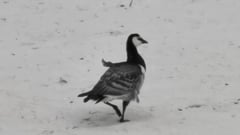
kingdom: Animalia
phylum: Chordata
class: Aves
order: Anseriformes
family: Anatidae
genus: Branta
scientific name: Branta leucopsis
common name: Barnacle goose
